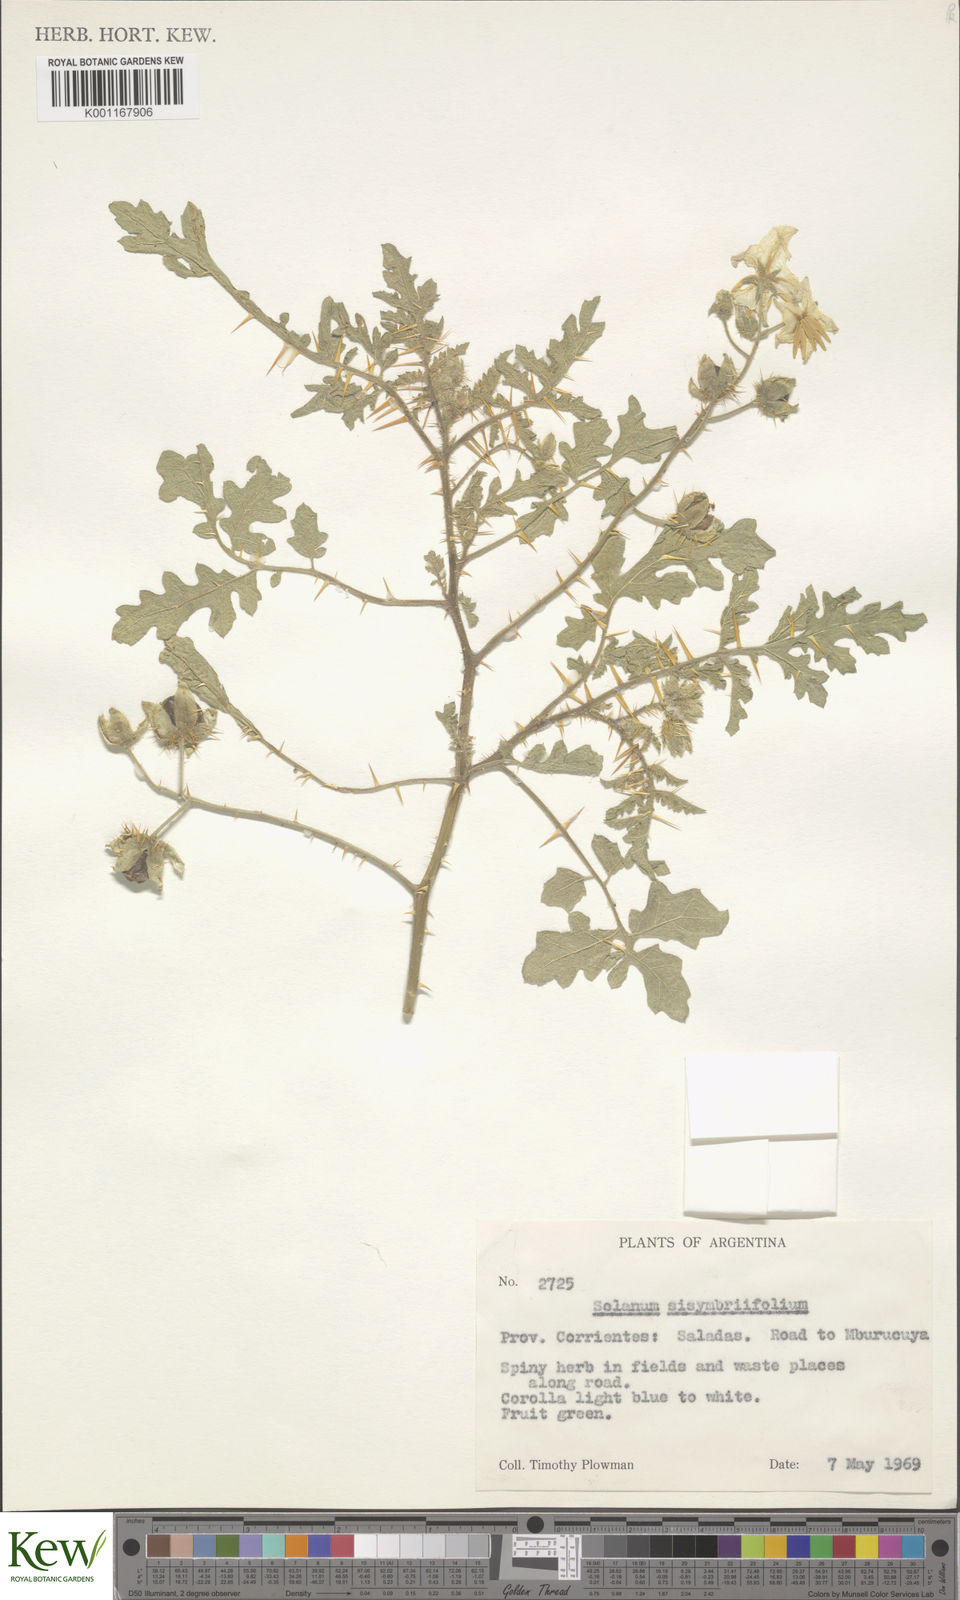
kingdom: Plantae
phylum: Tracheophyta
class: Magnoliopsida
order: Solanales
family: Solanaceae
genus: Solanum
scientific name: Solanum sisymbriifolium
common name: Red buffalo-bur
